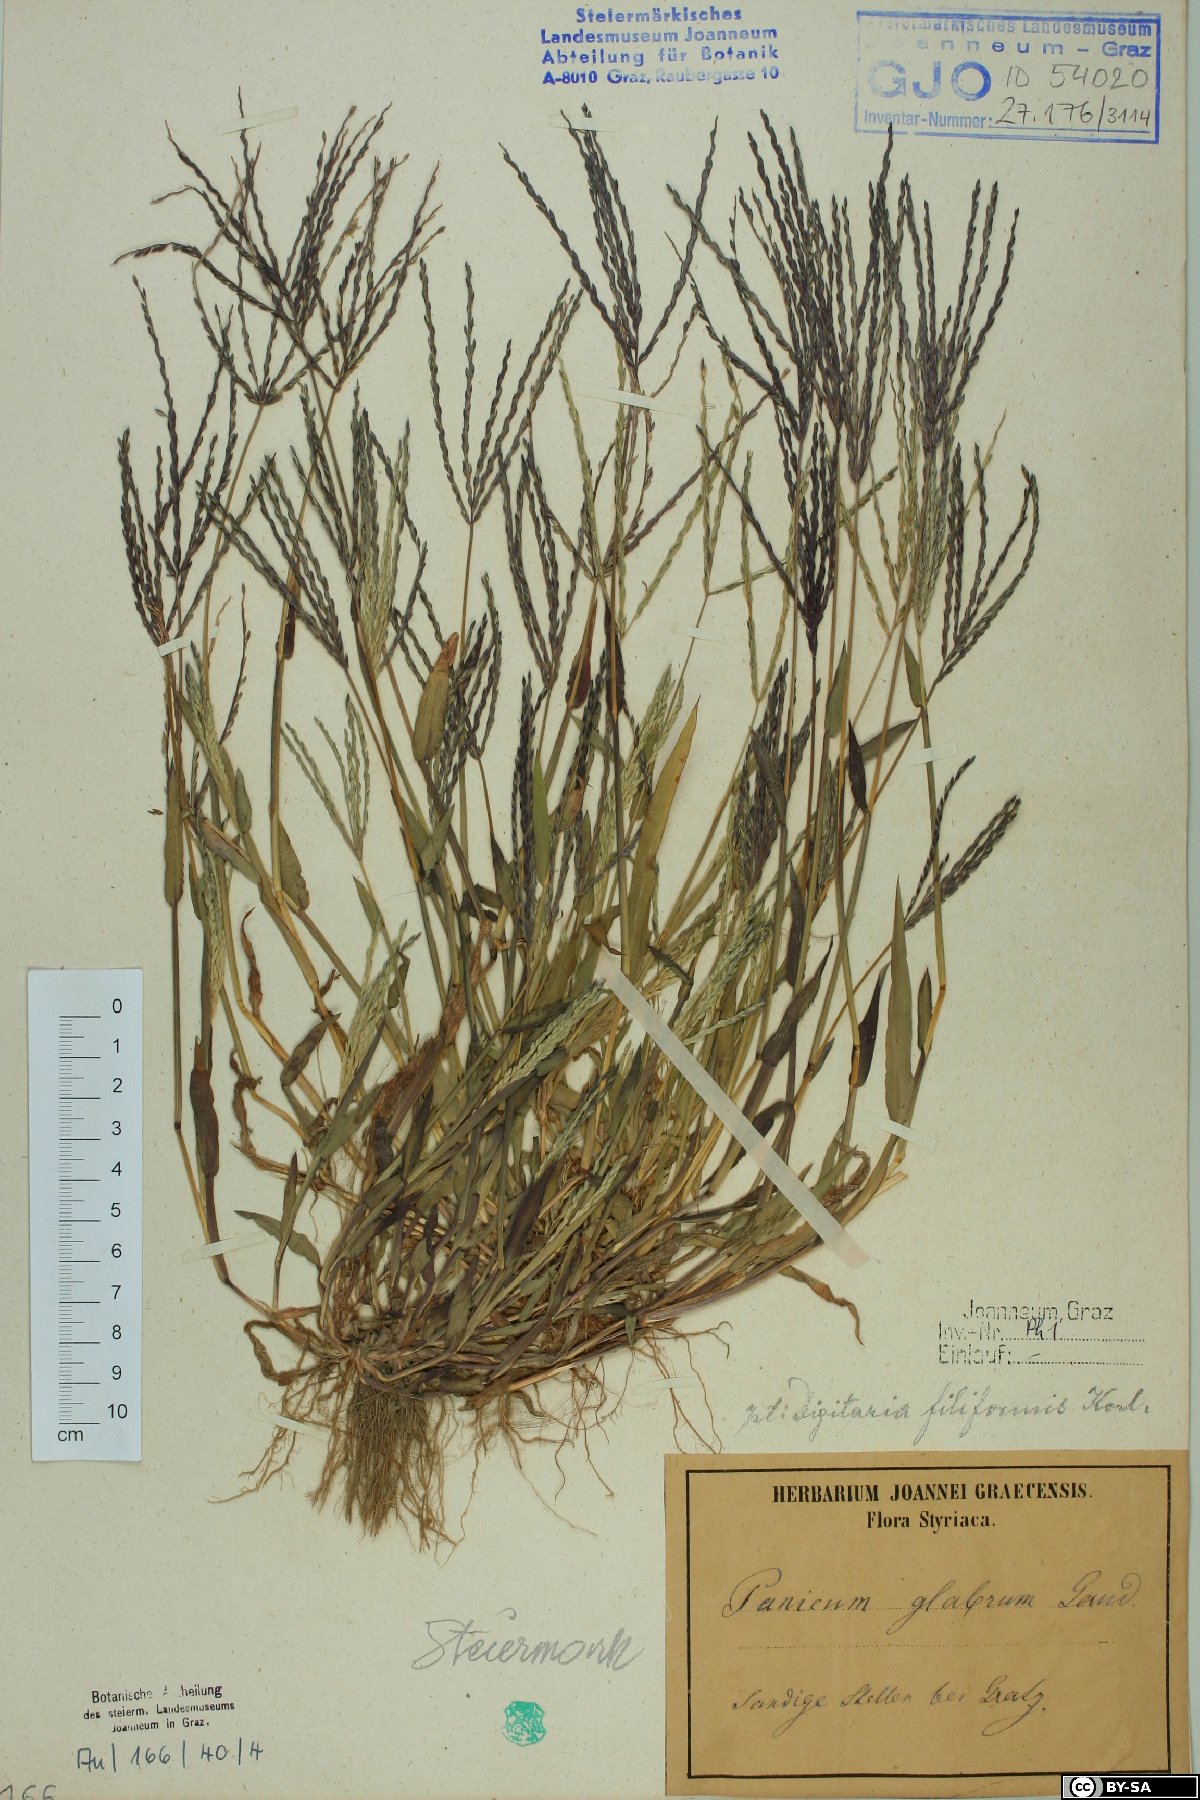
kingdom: Plantae
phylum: Tracheophyta
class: Liliopsida
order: Poales
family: Poaceae
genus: Digitaria
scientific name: Digitaria ischaemum
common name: Smooth crabgrass
